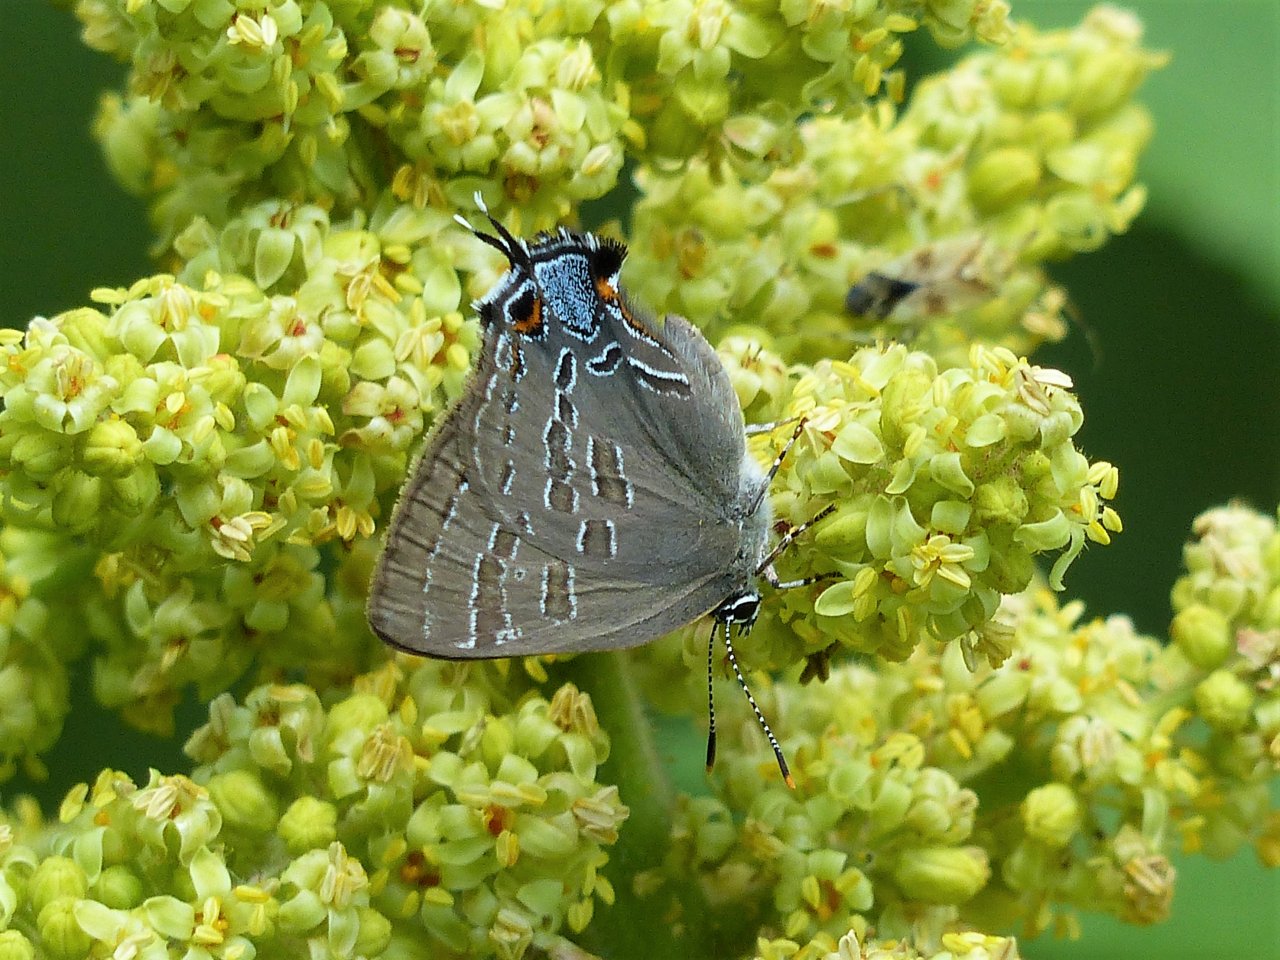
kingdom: Animalia
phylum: Arthropoda
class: Insecta
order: Lepidoptera
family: Lycaenidae
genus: Strymon
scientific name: Strymon caryaevorus
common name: Hickory Hairstreak
